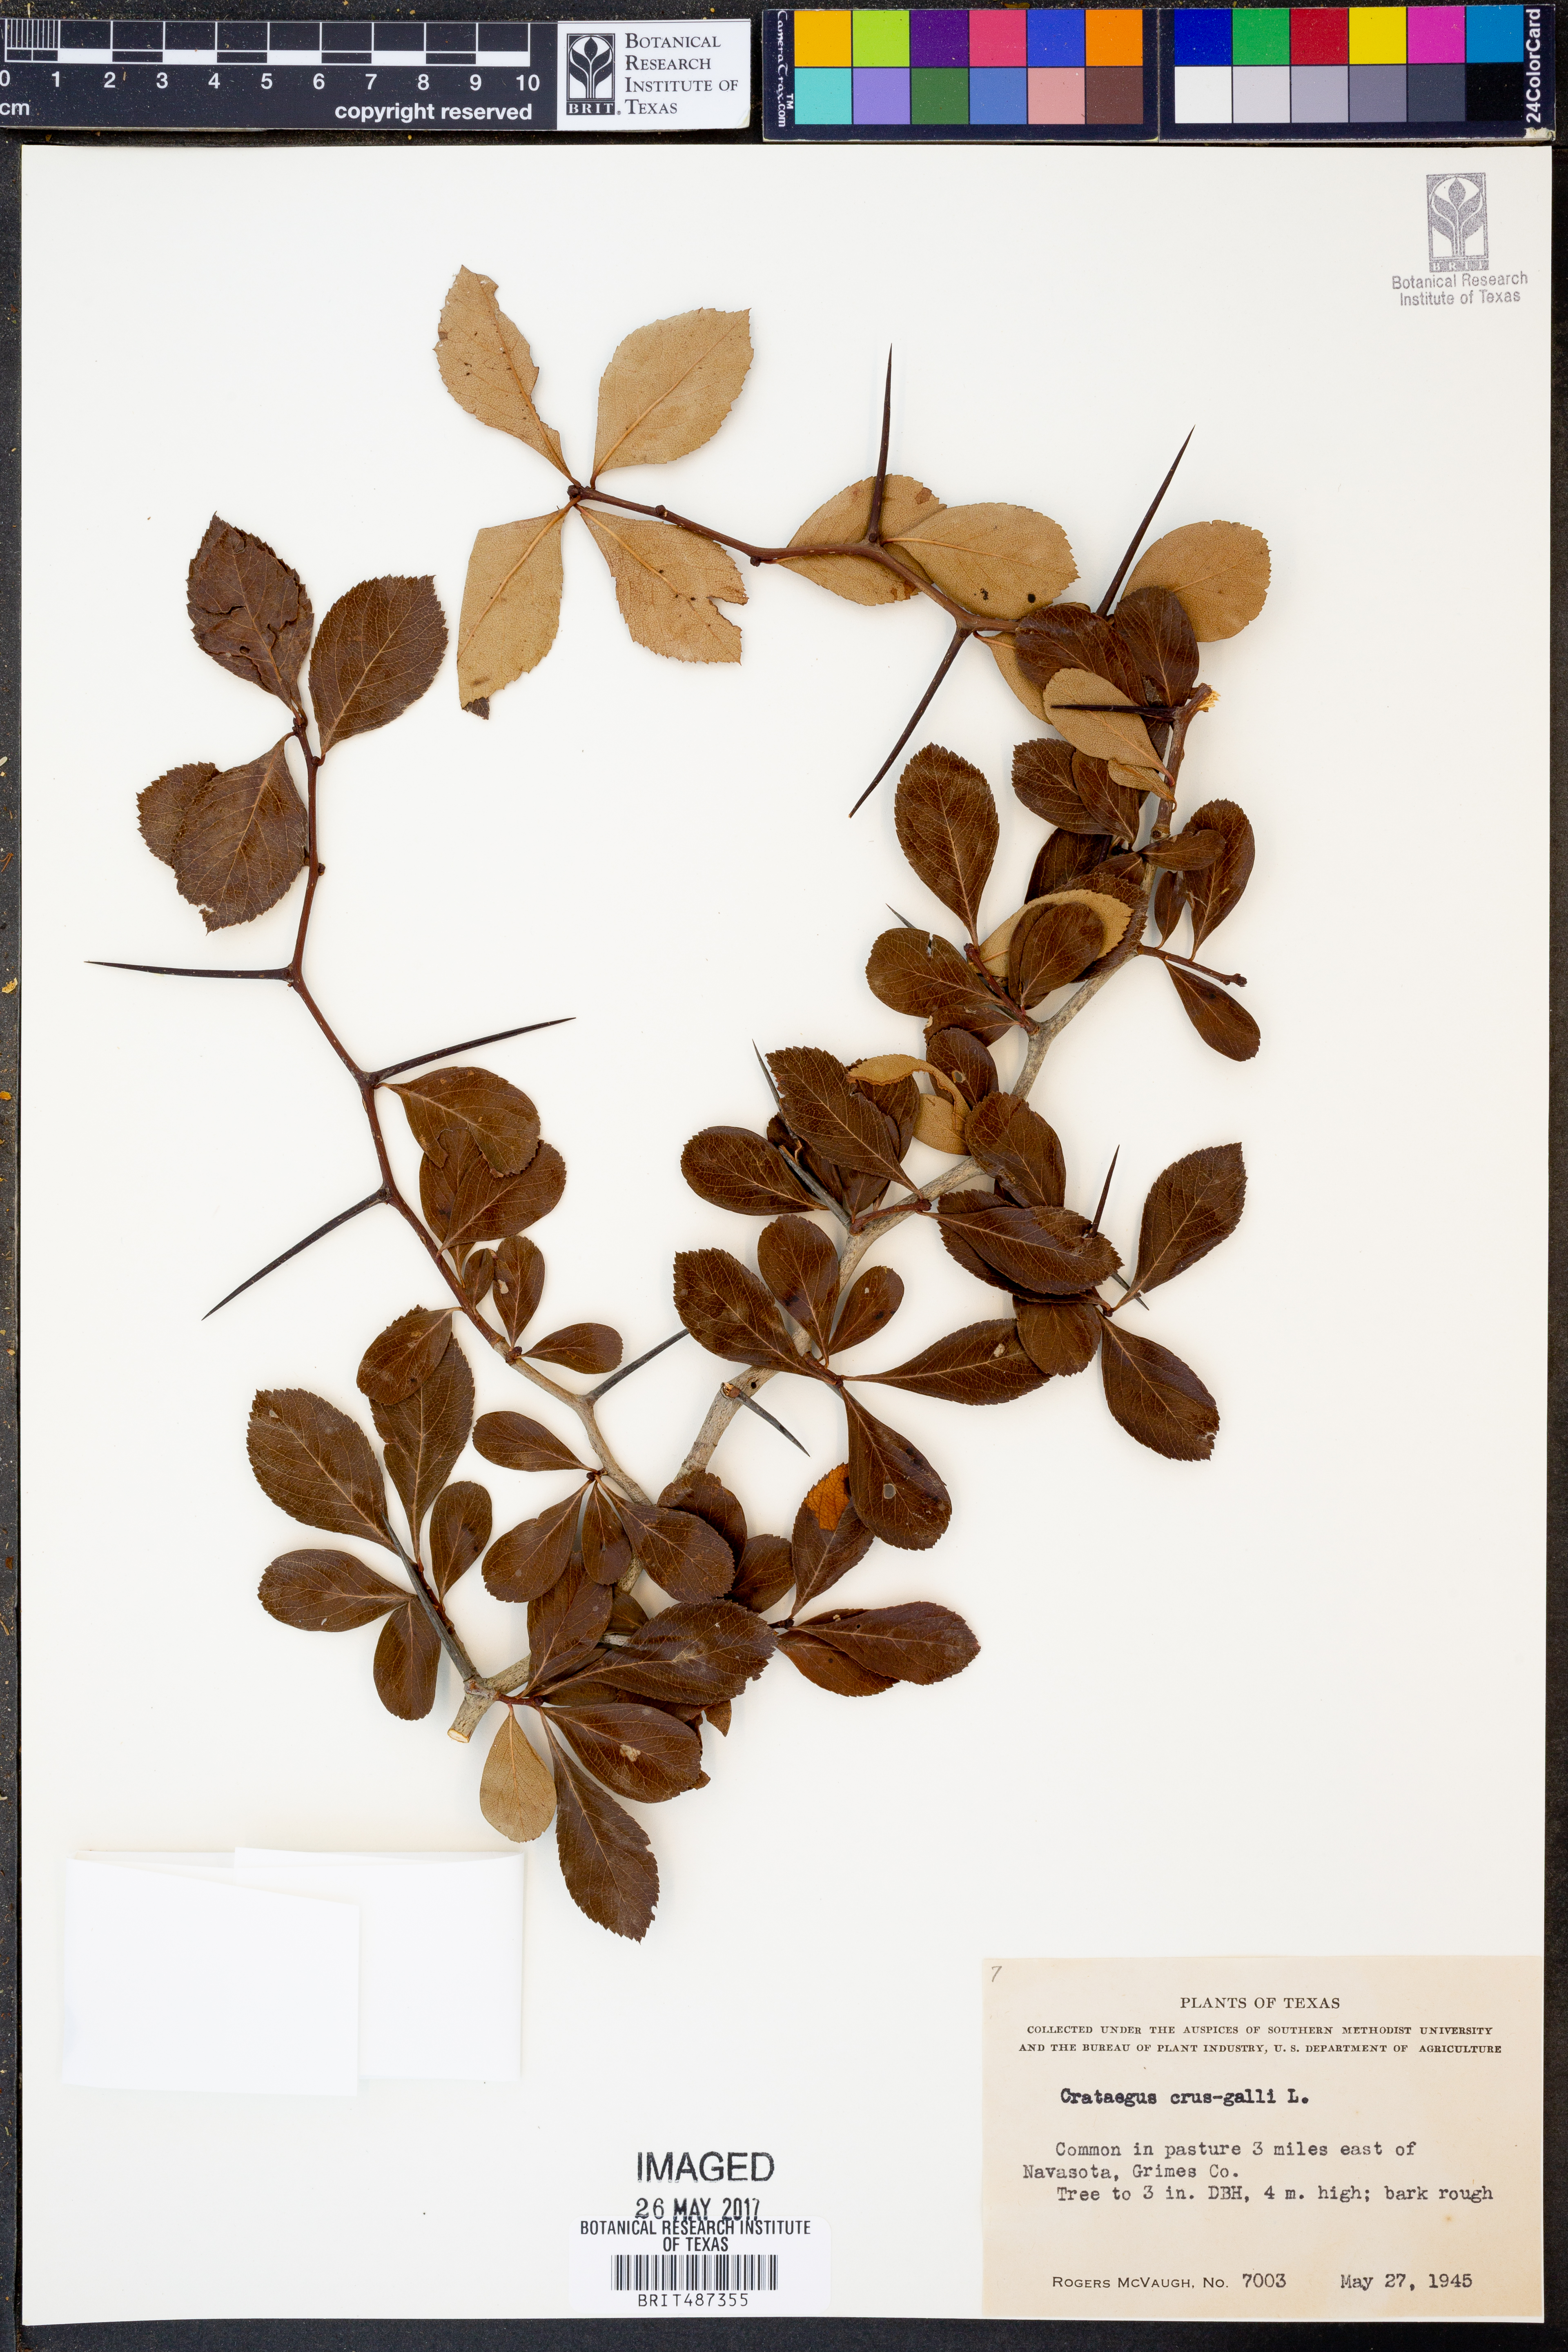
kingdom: Plantae
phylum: Tracheophyta
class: Magnoliopsida
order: Rosales
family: Rosaceae
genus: Crataegus
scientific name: Crataegus crus-galli
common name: Cockspurthorn
